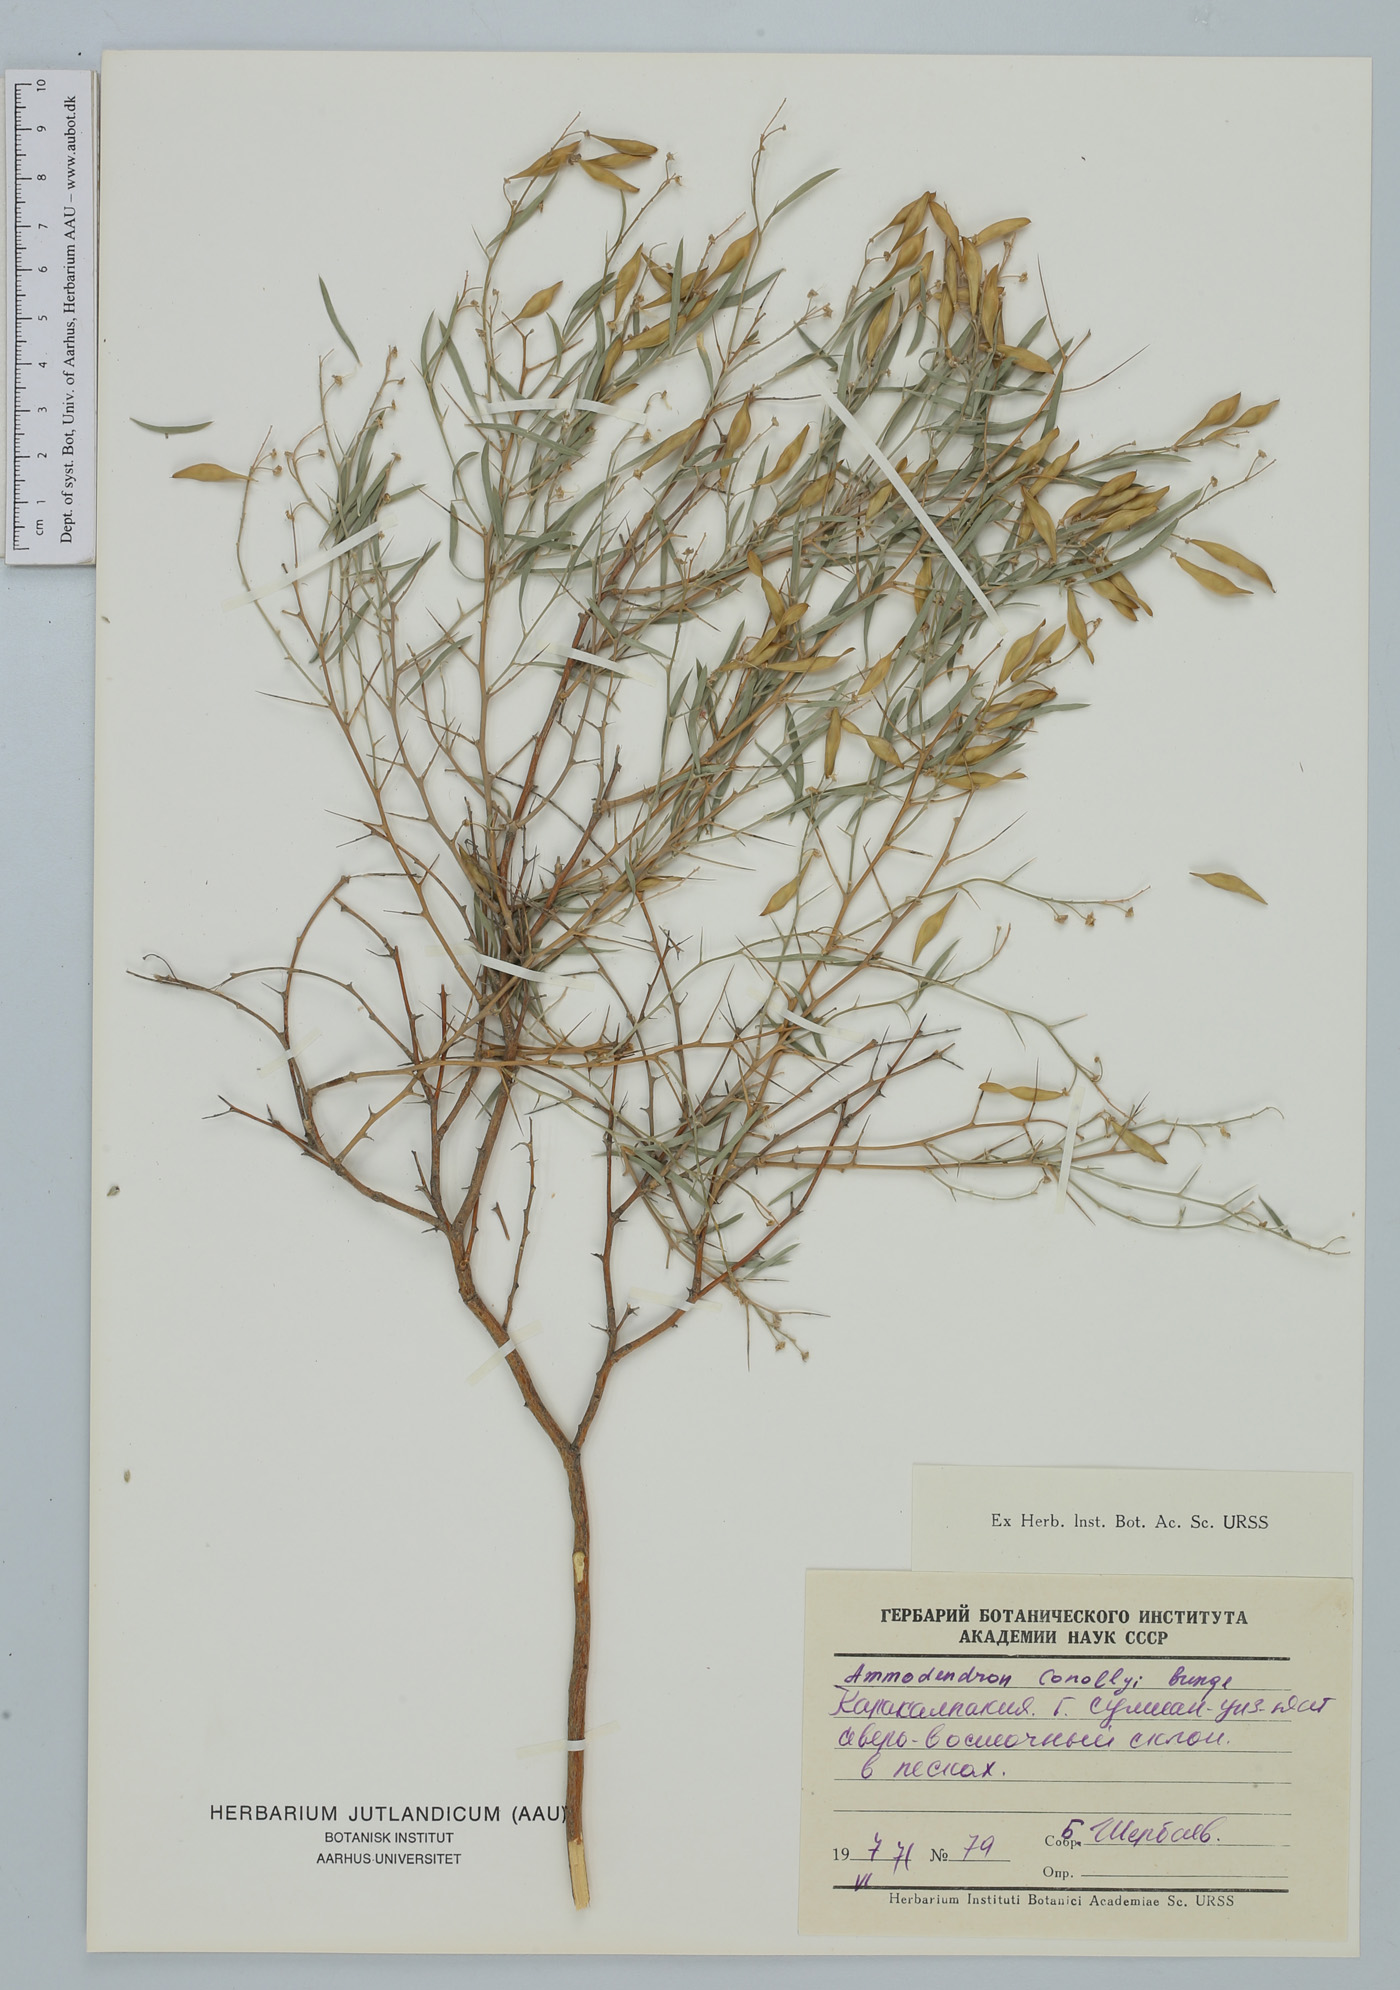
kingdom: Plantae
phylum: Tracheophyta
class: Magnoliopsida
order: Fabales
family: Fabaceae
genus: Ammodendron
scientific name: Ammodendron conollyi
